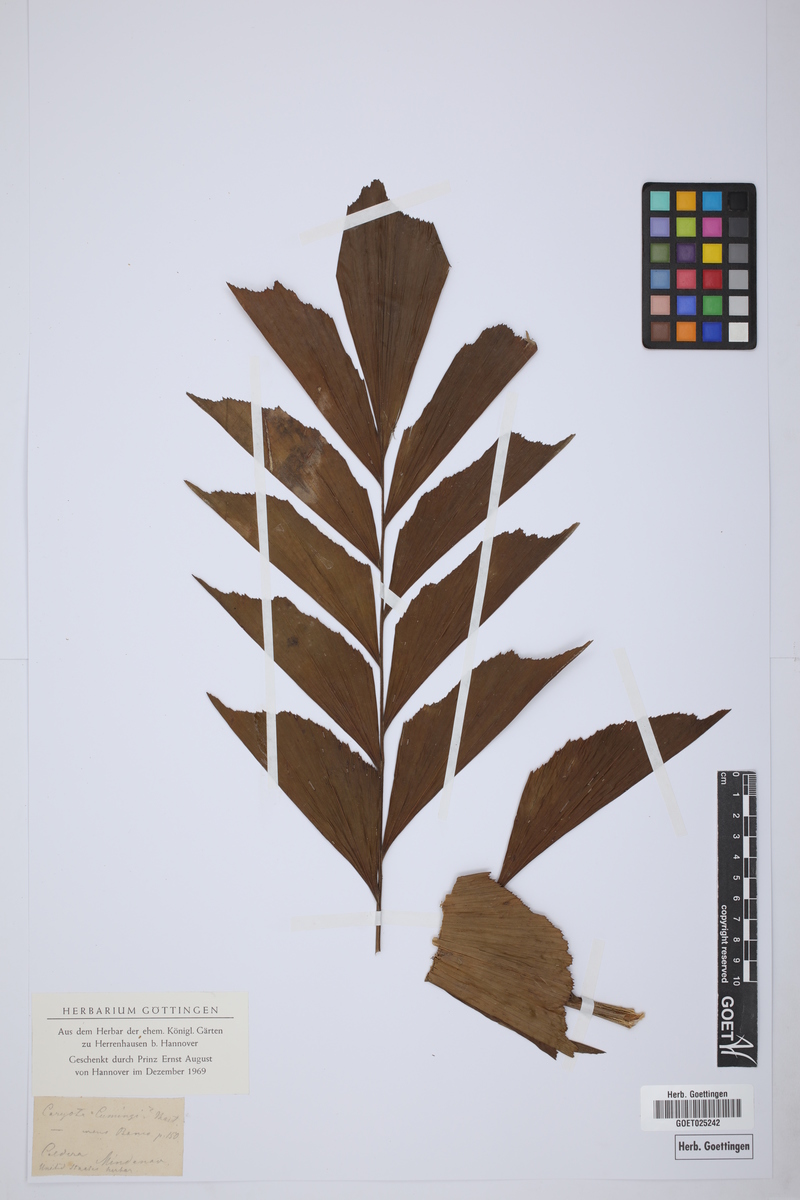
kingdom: Plantae
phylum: Tracheophyta
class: Liliopsida
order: Arecales
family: Arecaceae
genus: Caryota
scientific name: Caryota cumingii
